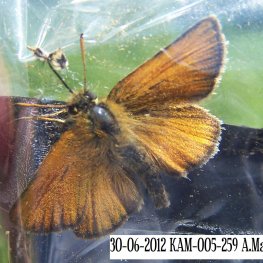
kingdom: Animalia
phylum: Arthropoda
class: Insecta
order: Lepidoptera
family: Hesperiidae
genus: Thymelicus
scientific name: Thymelicus lineola
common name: European Skipper
